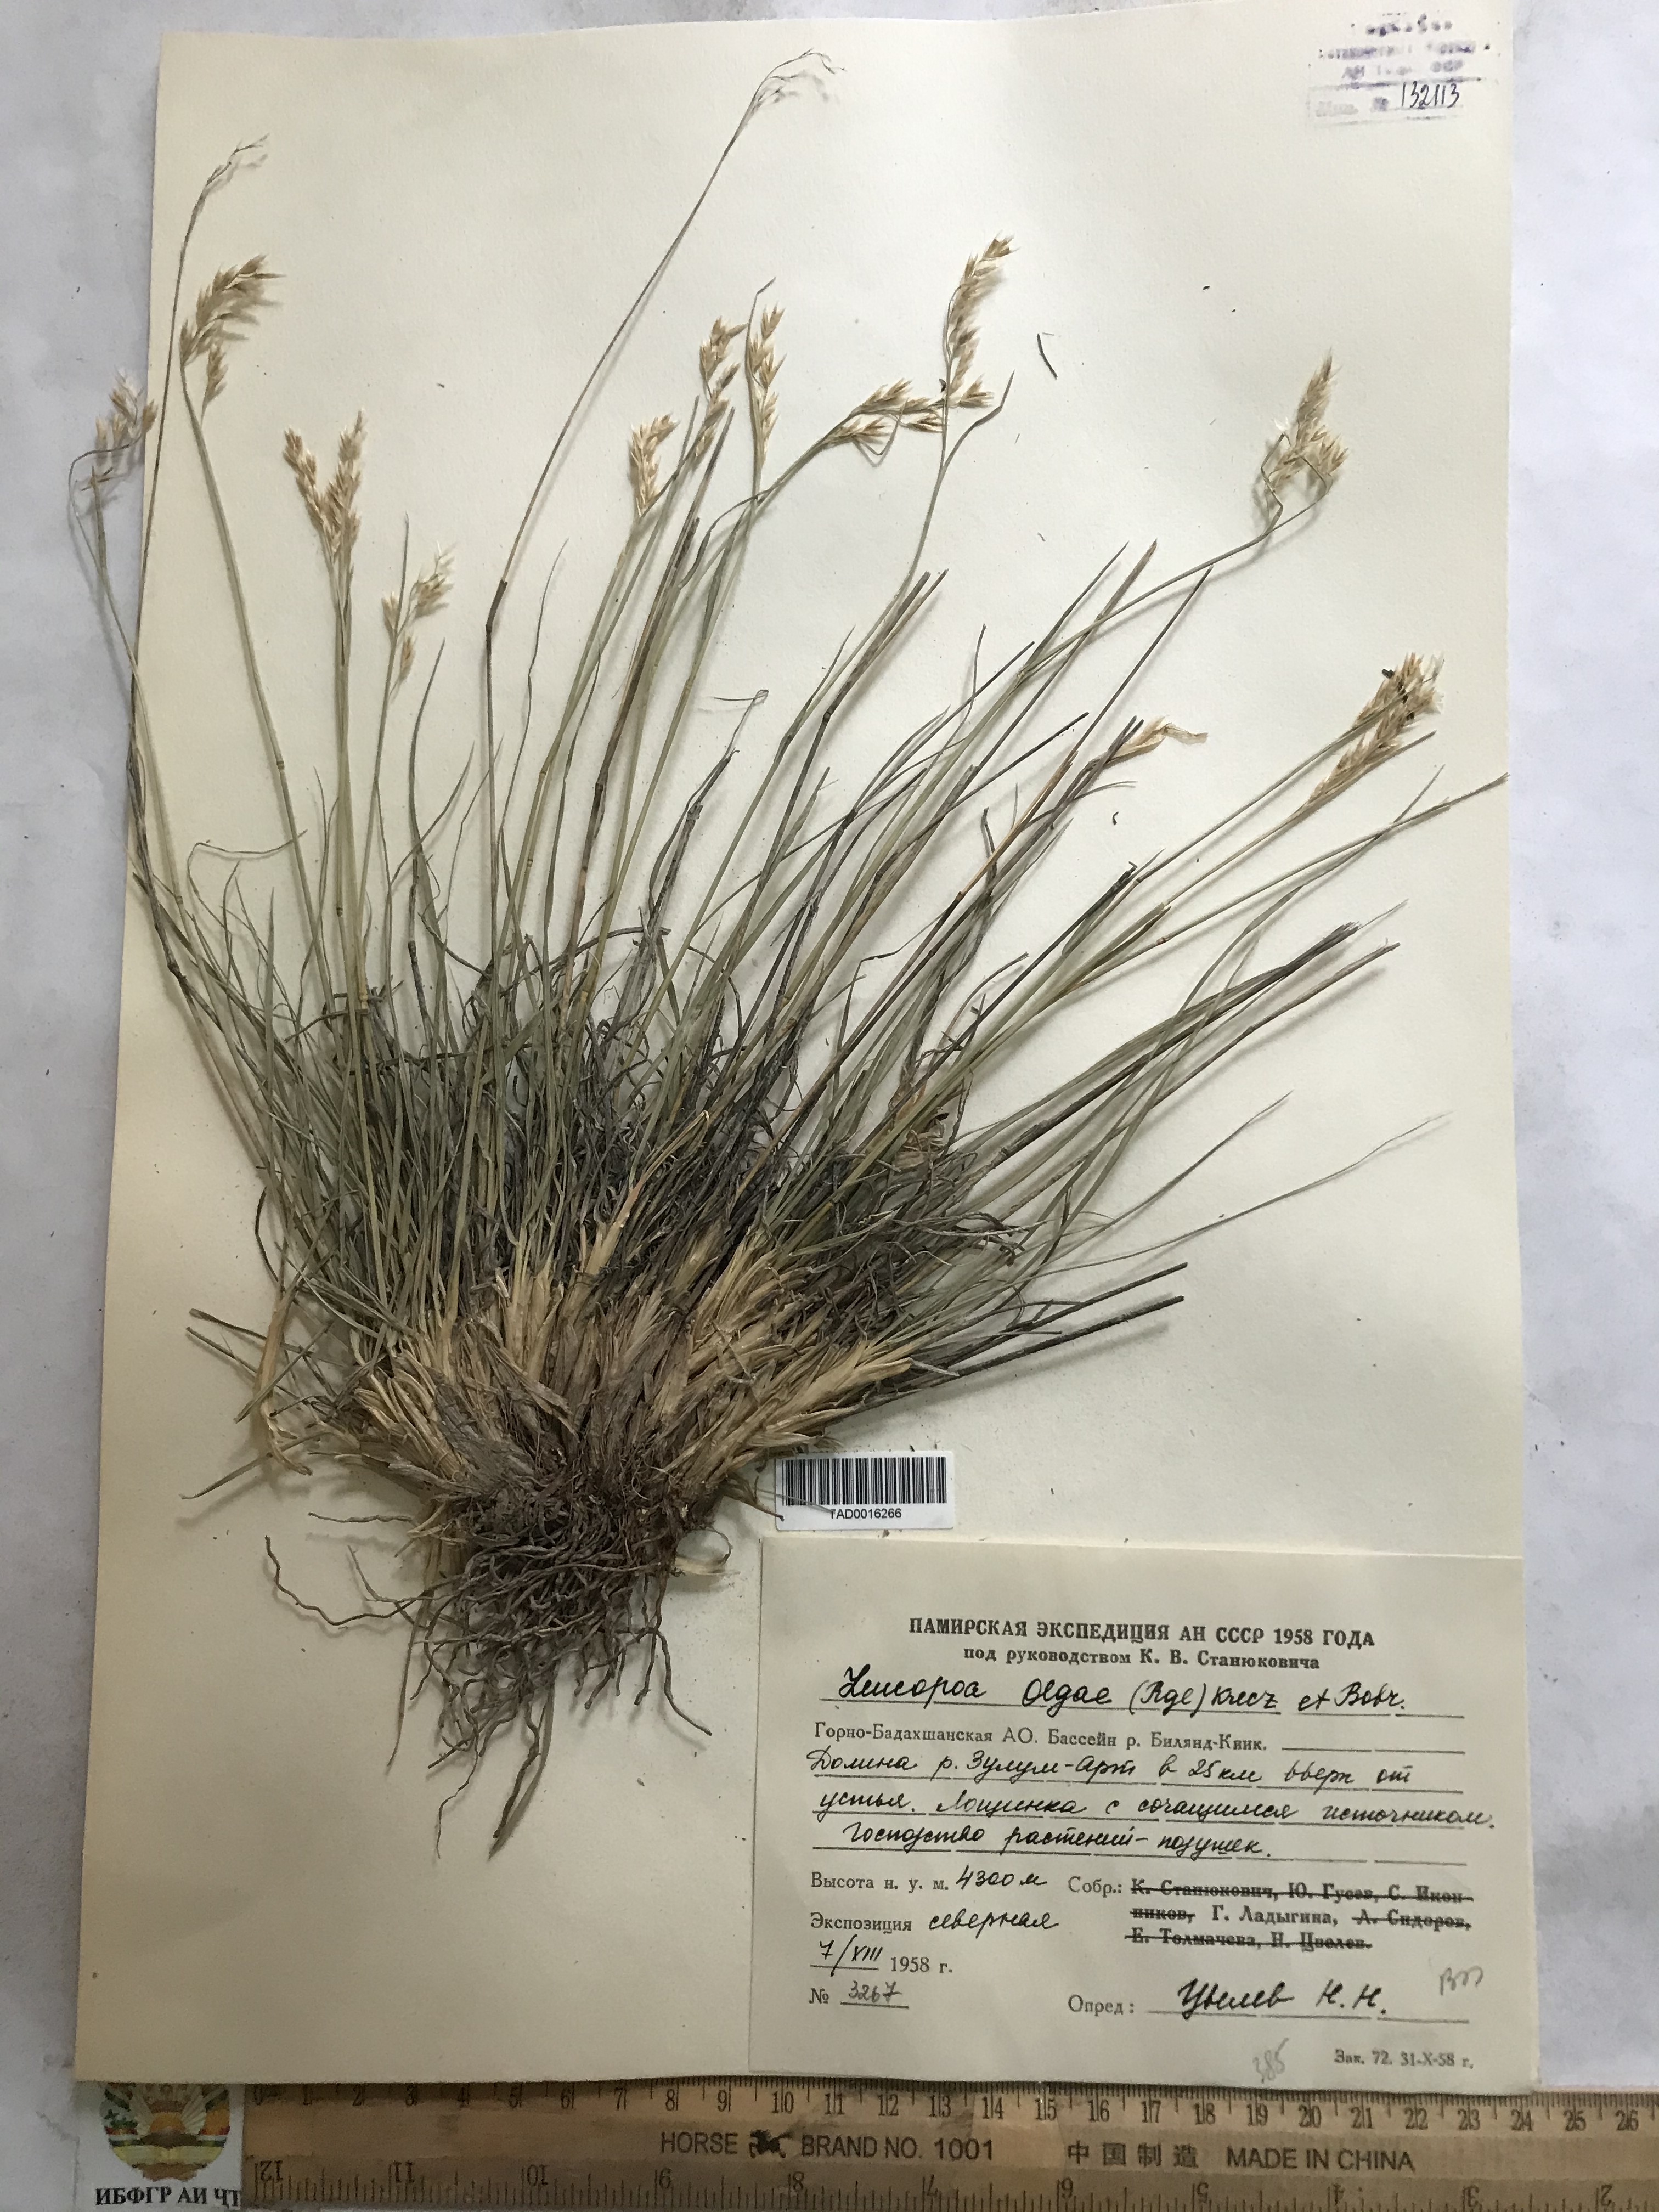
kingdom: Plantae
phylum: Tracheophyta
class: Liliopsida
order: Poales
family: Poaceae
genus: Festuca
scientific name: Festuca
